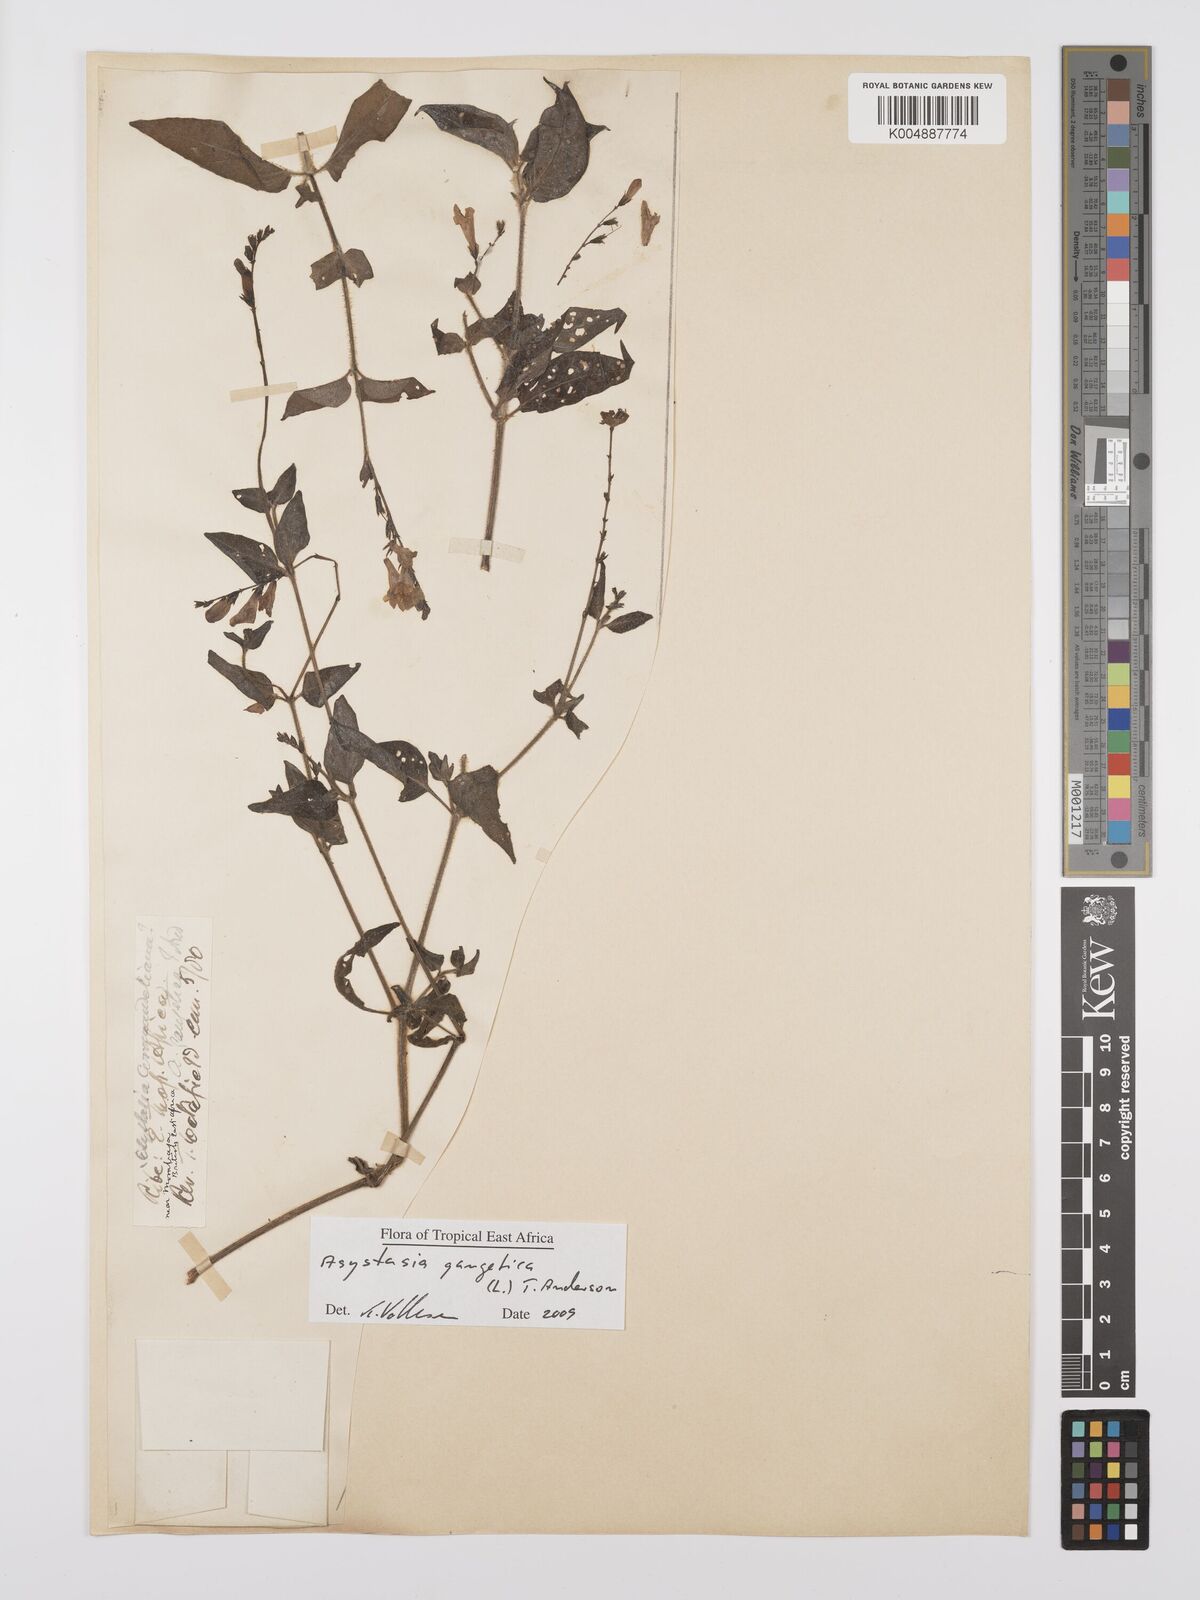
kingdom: Plantae
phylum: Tracheophyta
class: Magnoliopsida
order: Lamiales
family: Acanthaceae
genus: Asystasia
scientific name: Asystasia gangetica
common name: Chinese violet
